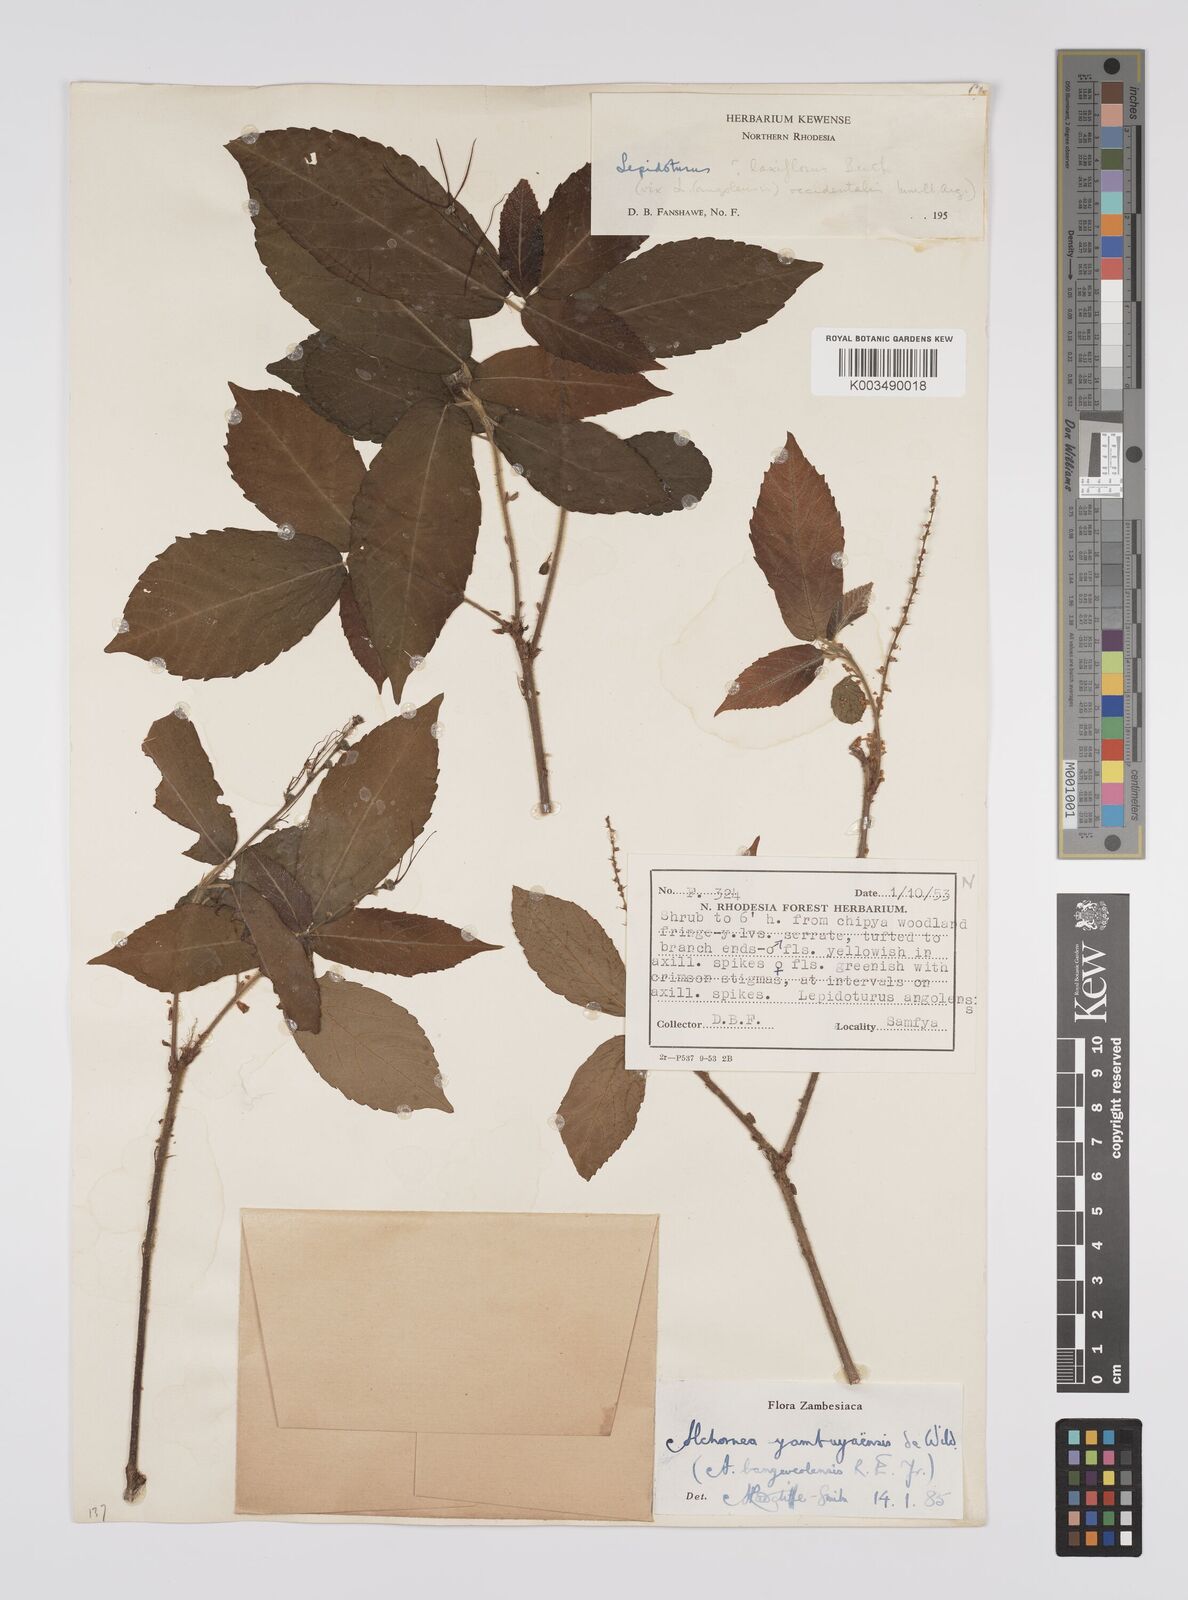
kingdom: Plantae
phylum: Tracheophyta
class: Magnoliopsida
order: Malpighiales
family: Euphorbiaceae
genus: Alchornea
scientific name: Alchornea yambuyaensis
